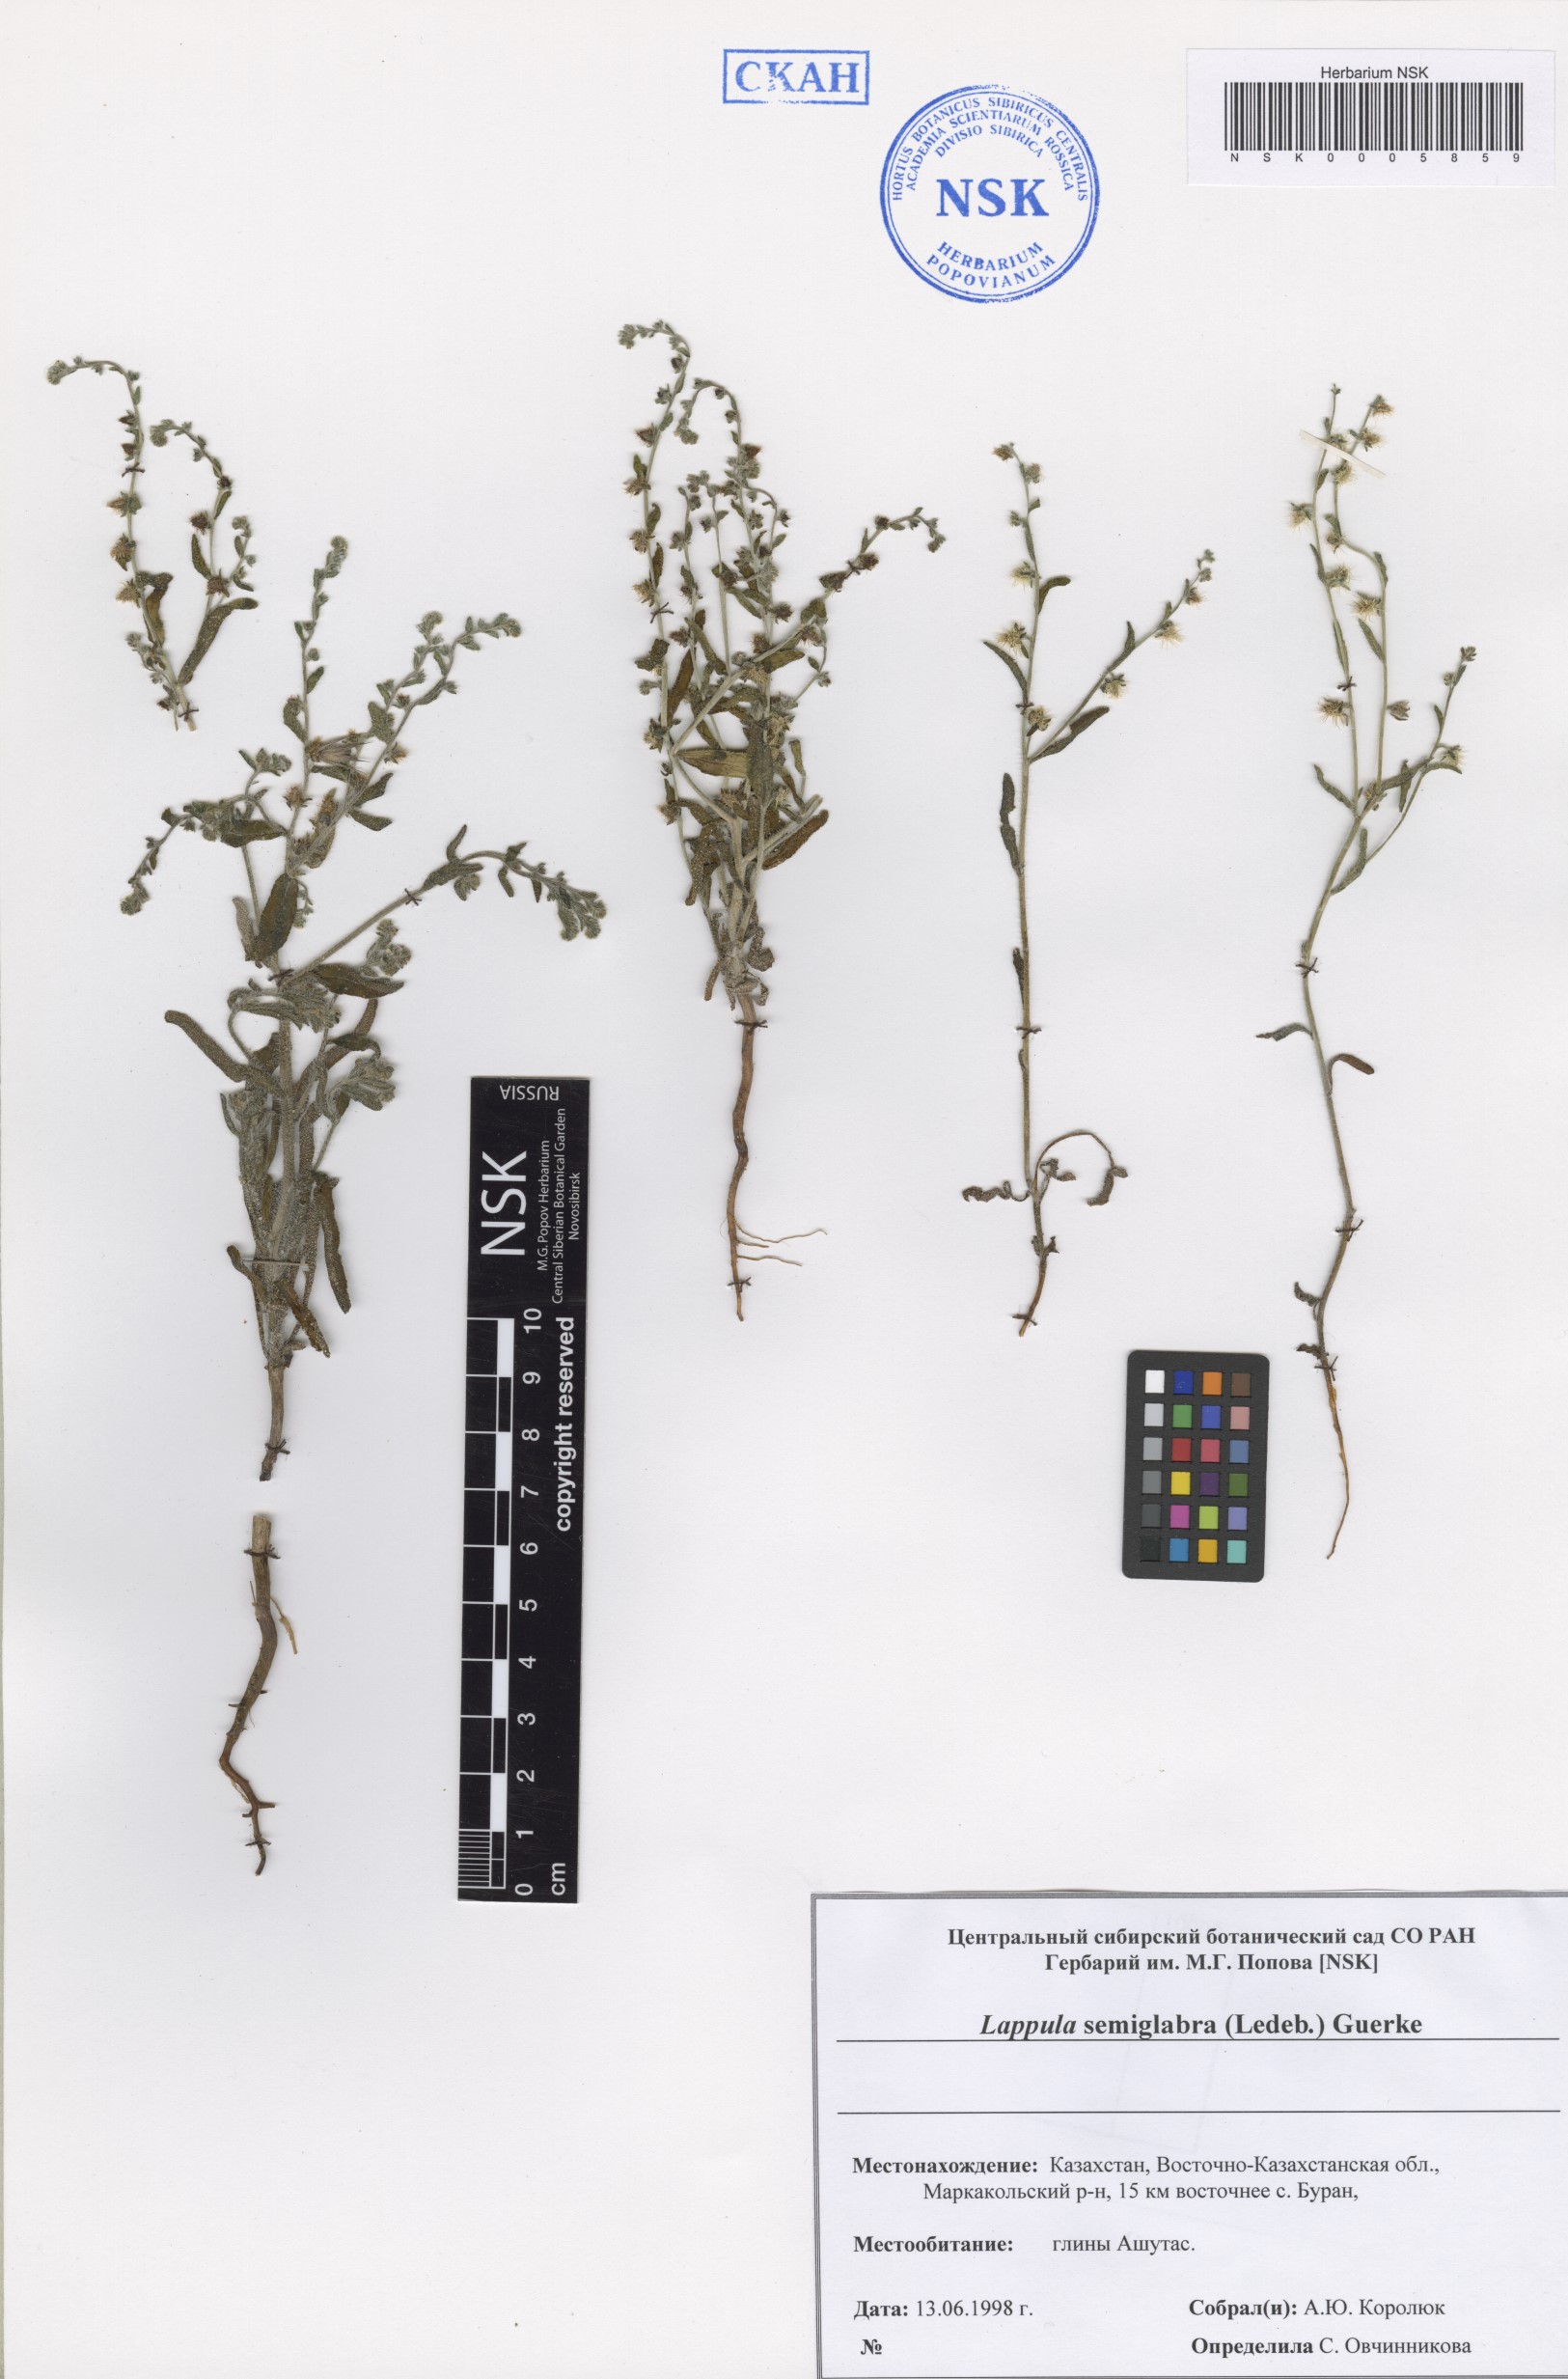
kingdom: Plantae
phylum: Tracheophyta
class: Magnoliopsida
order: Boraginales
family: Boraginaceae
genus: Lappula
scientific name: Lappula patula
